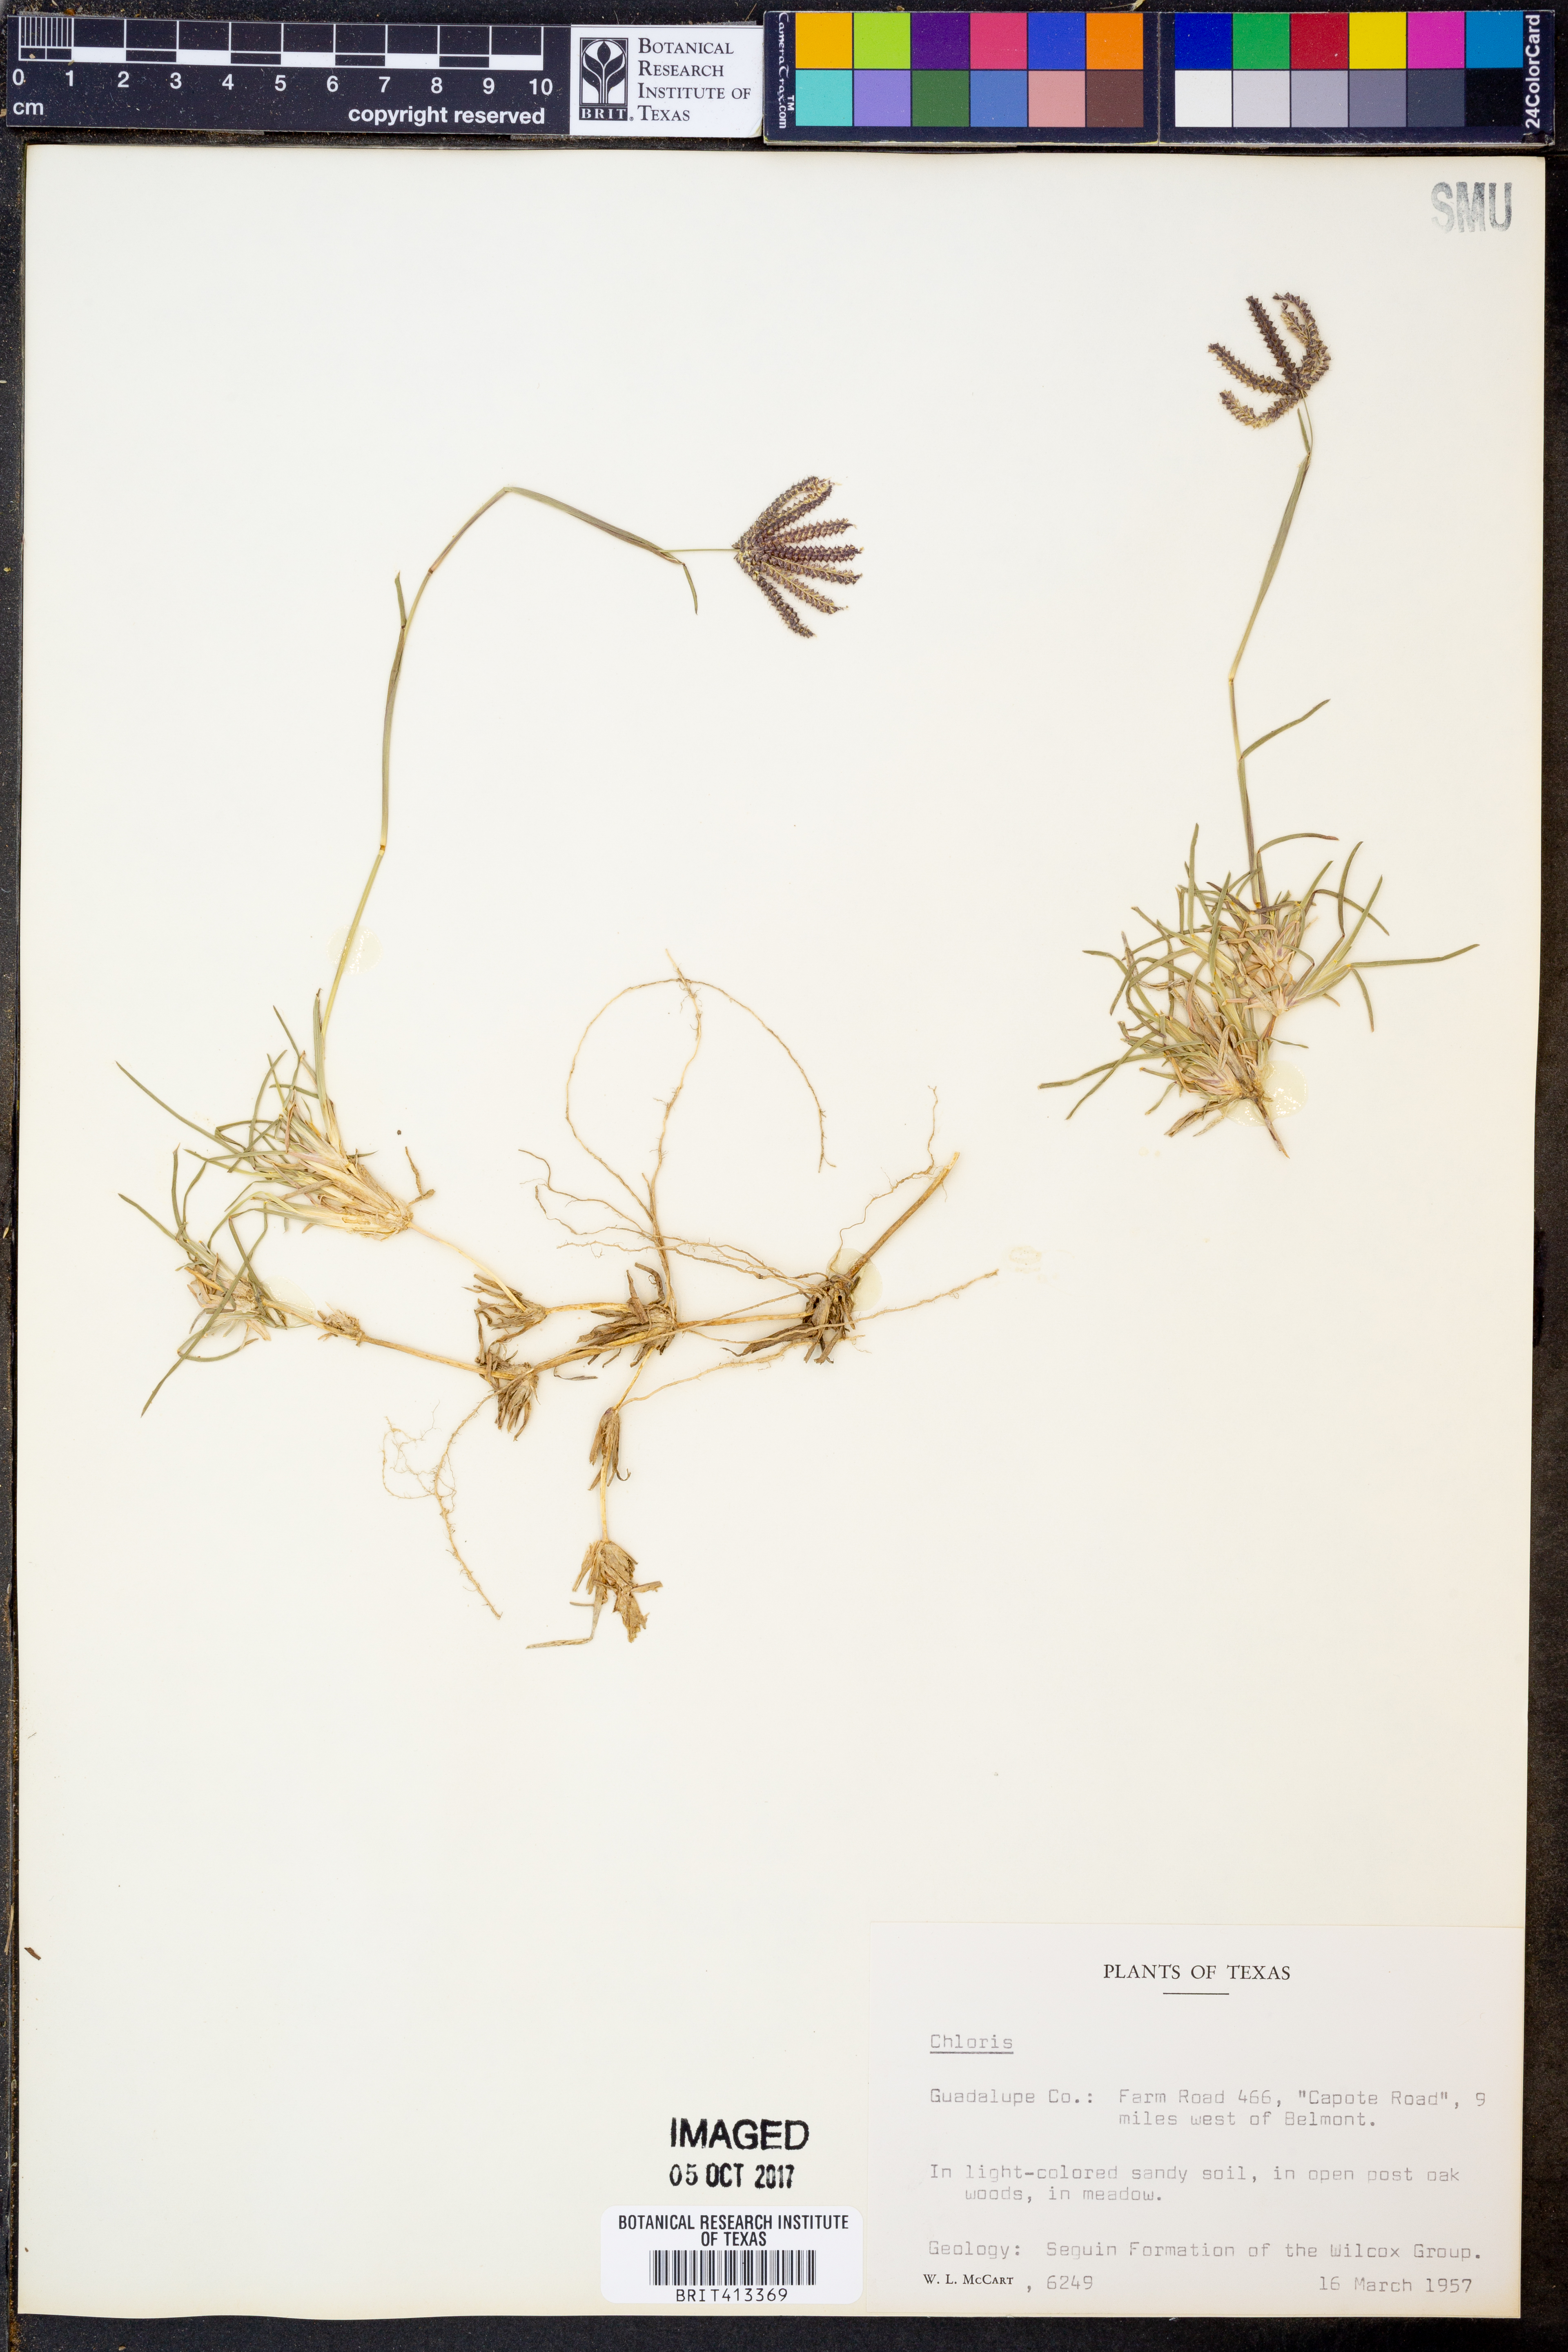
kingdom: Plantae
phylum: Tracheophyta
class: Liliopsida
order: Poales
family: Poaceae
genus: Chloris
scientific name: Chloris
